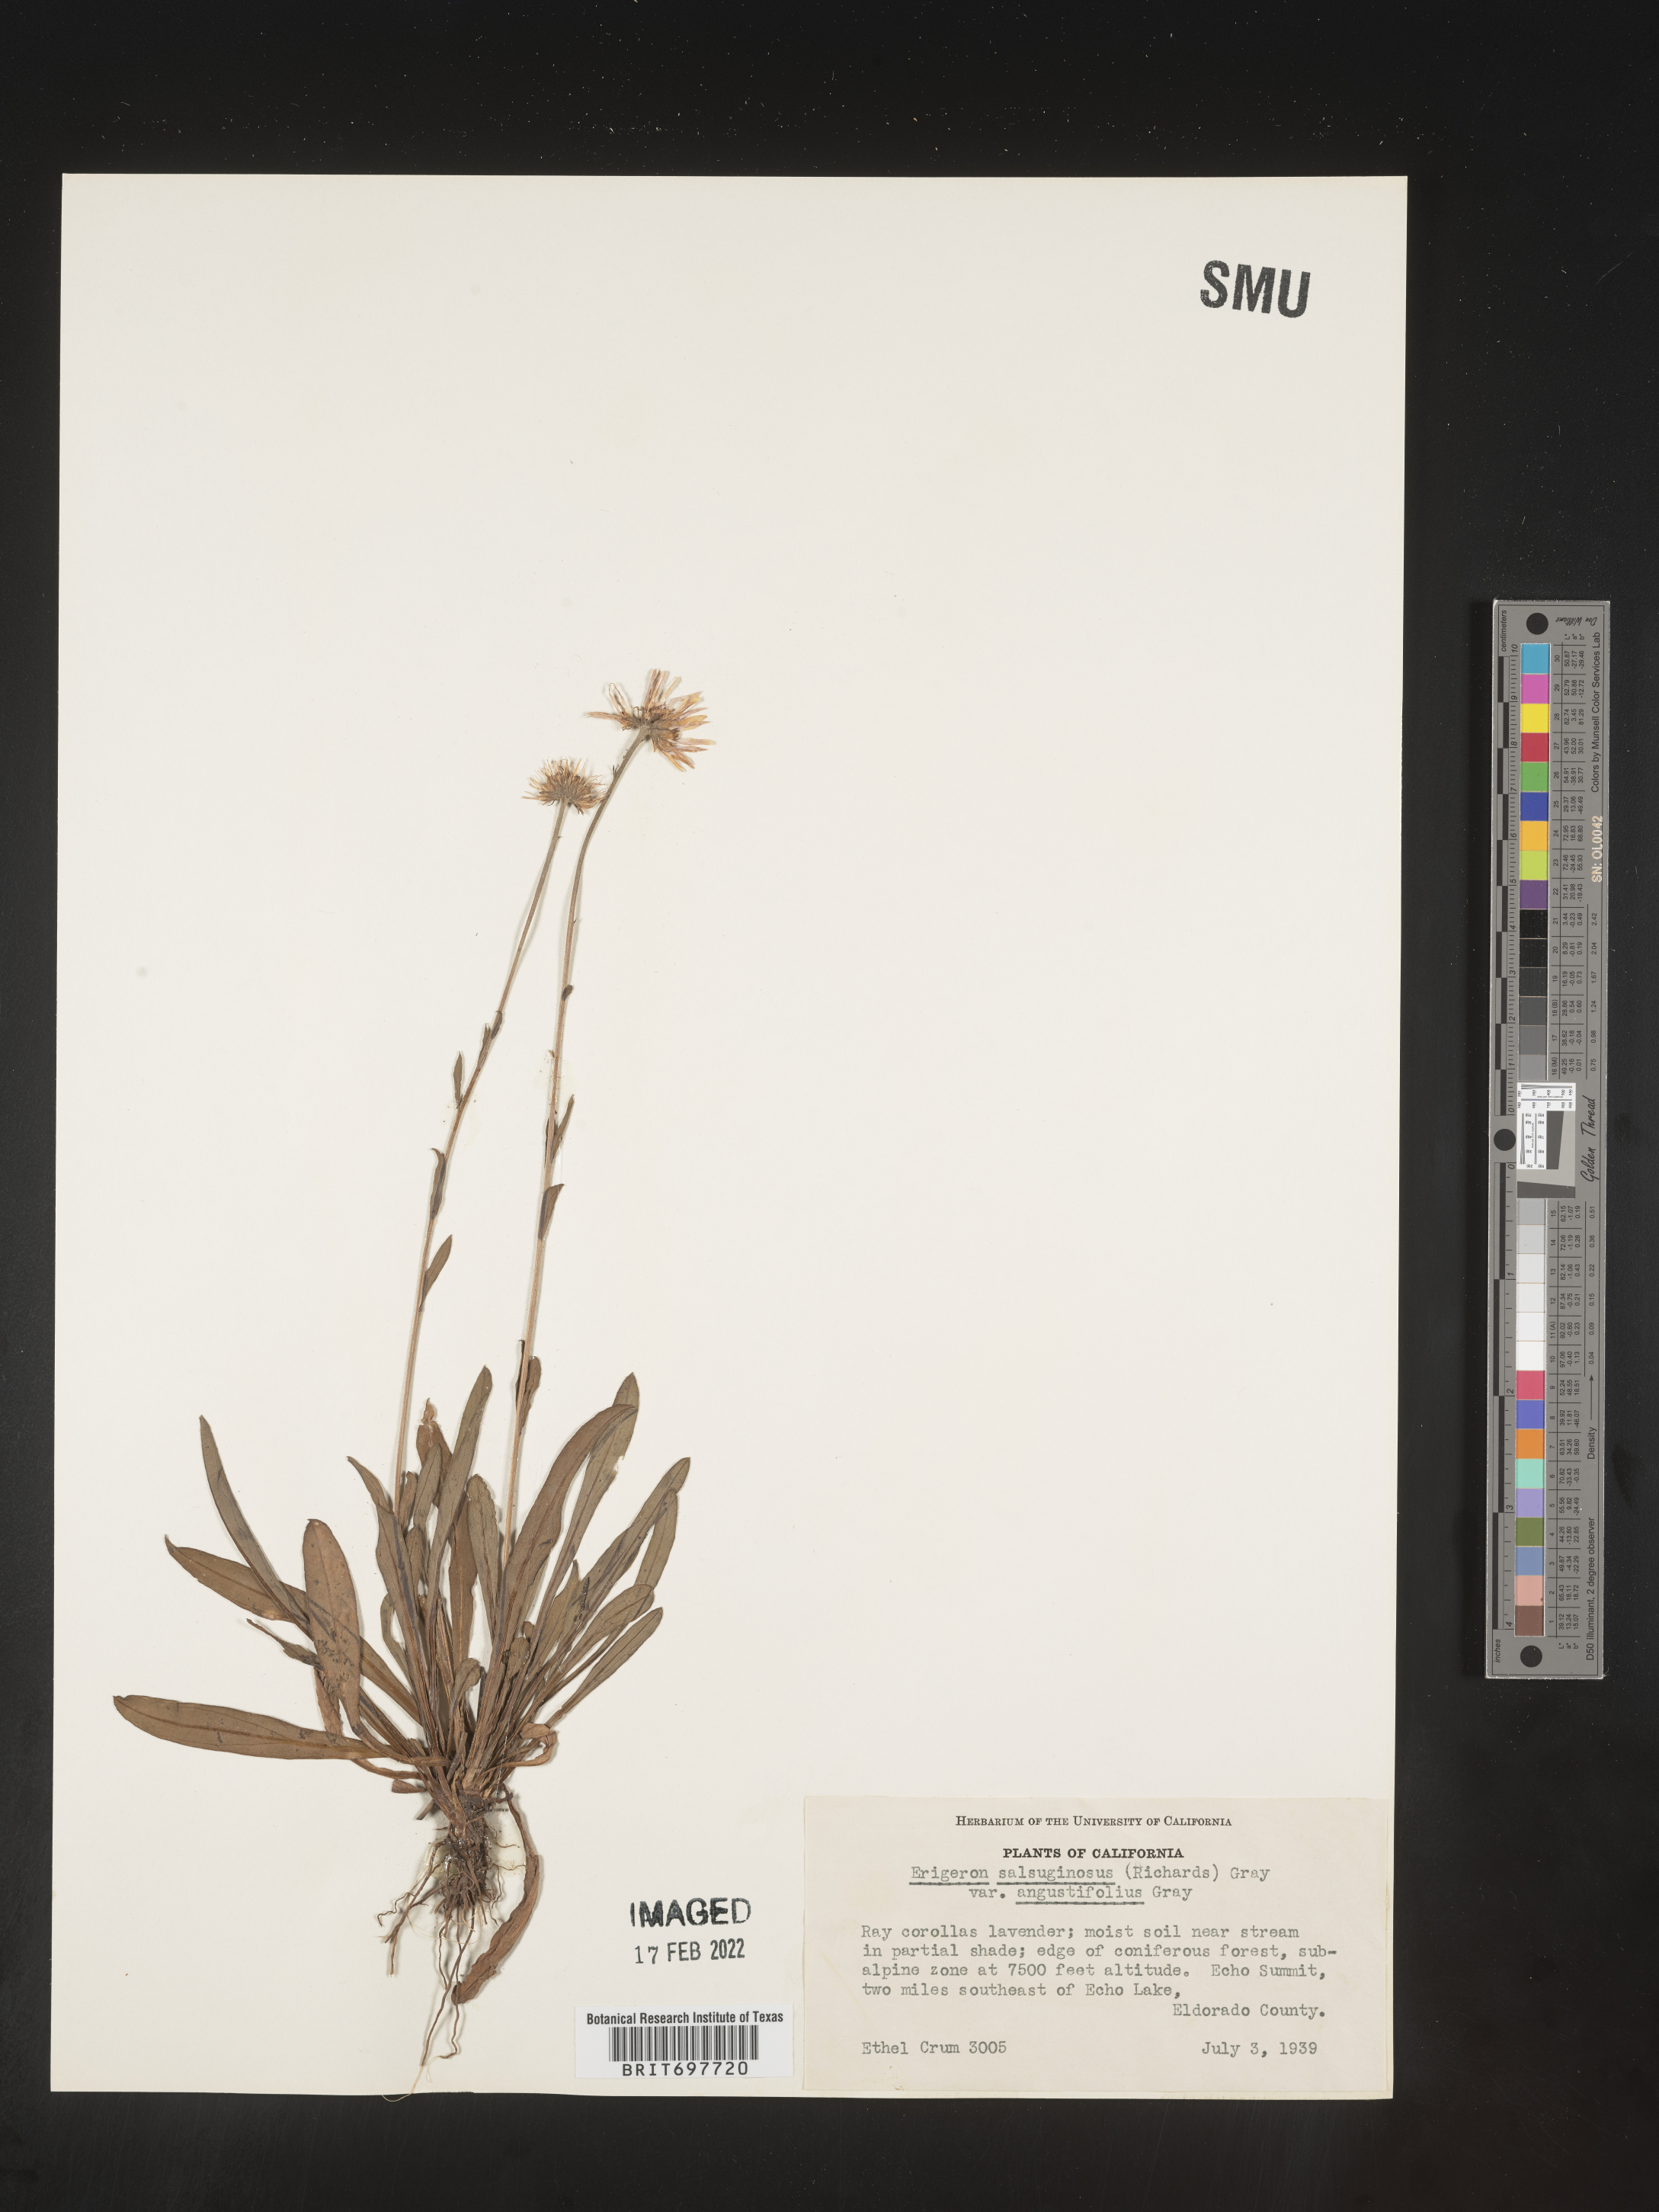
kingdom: Plantae
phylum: Tracheophyta
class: Magnoliopsida
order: Asterales
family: Asteraceae
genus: Erigeron
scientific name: Erigeron glacialis
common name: Subalpine fleabane
